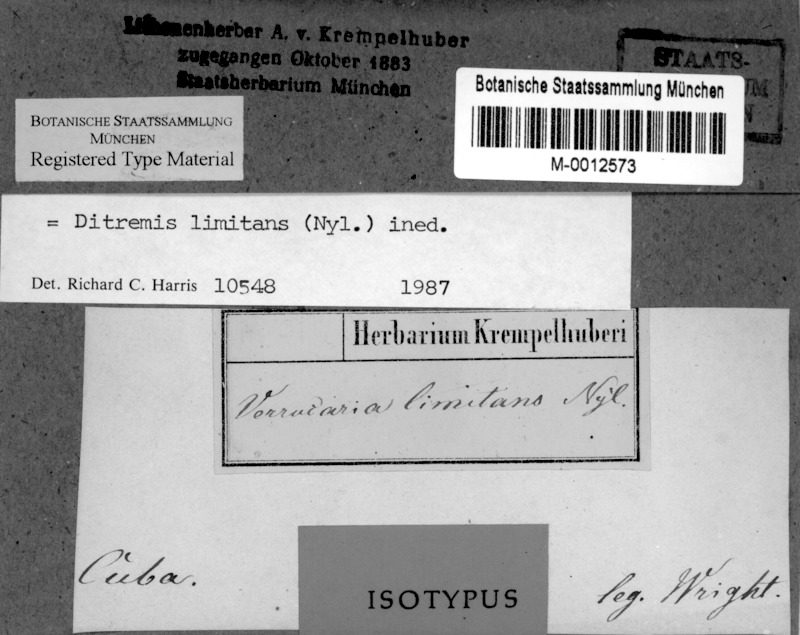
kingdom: Fungi
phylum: Ascomycota
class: Dothideomycetes
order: Monoblastiales
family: Monoblastiaceae
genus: Anisomeridium
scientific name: Anisomeridium Ditremis limitans
